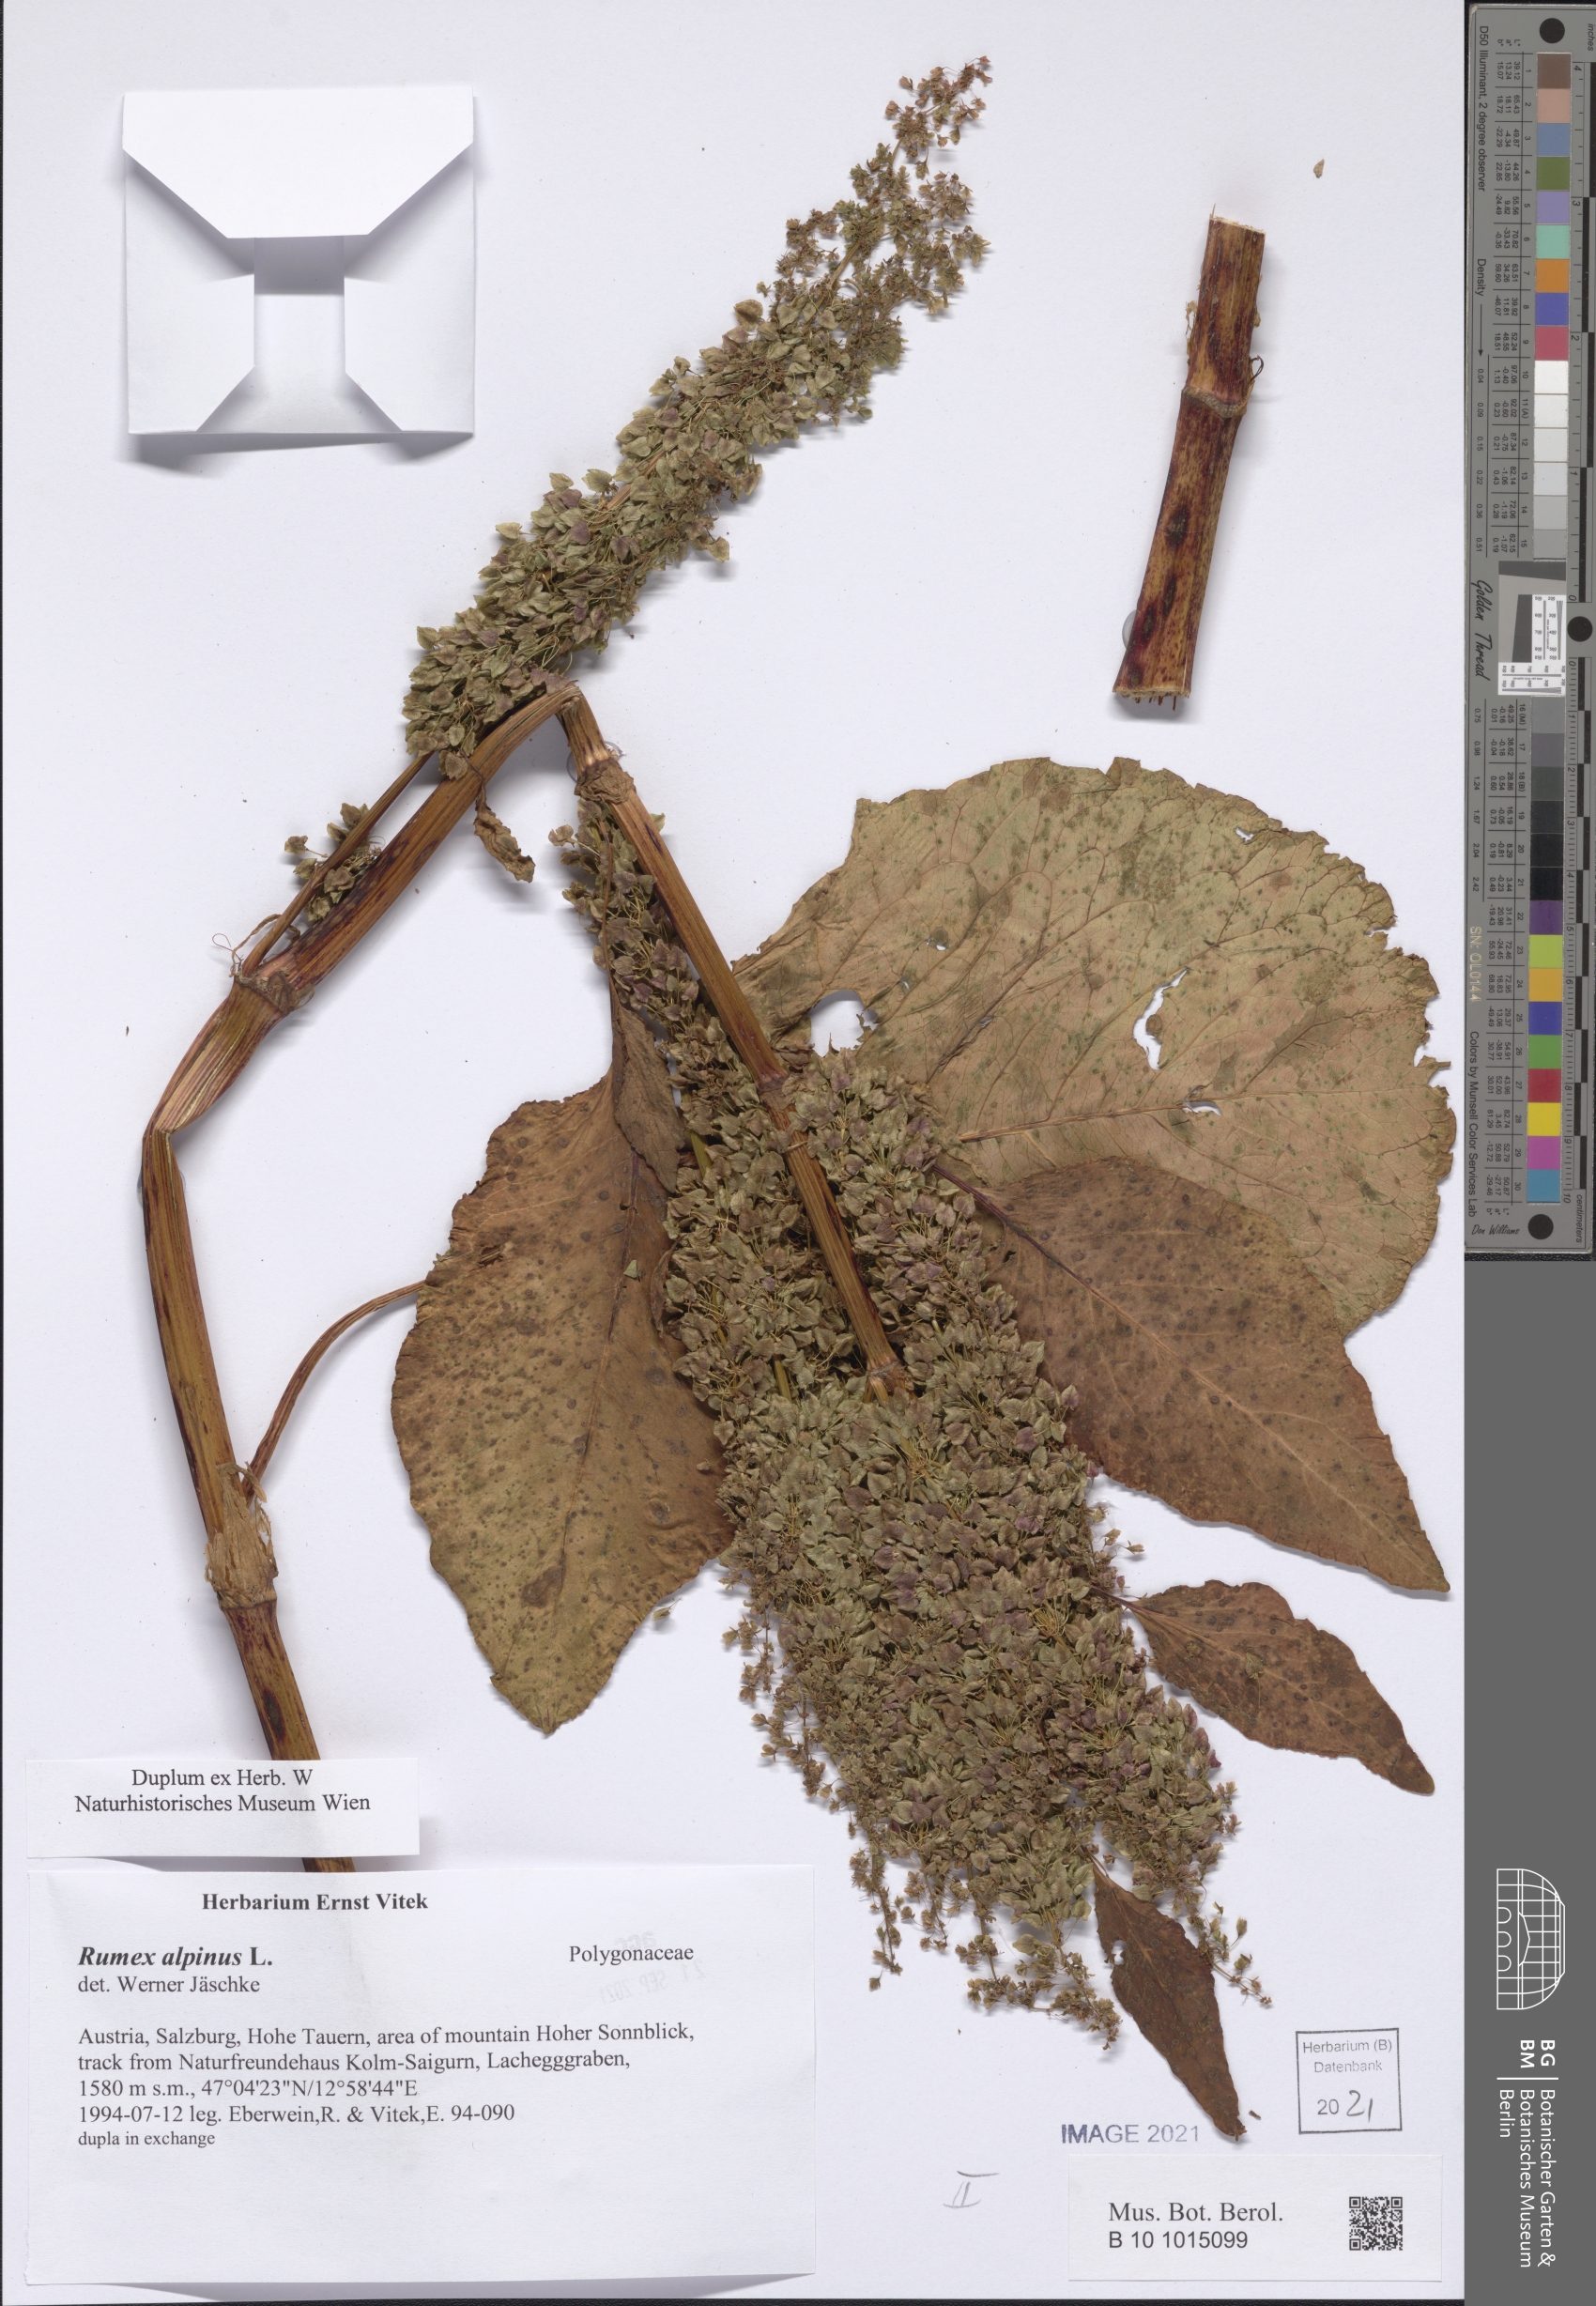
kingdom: Plantae
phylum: Tracheophyta
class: Magnoliopsida
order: Caryophyllales
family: Polygonaceae
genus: Rumex
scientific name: Rumex alpinus
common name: Alpine dock
